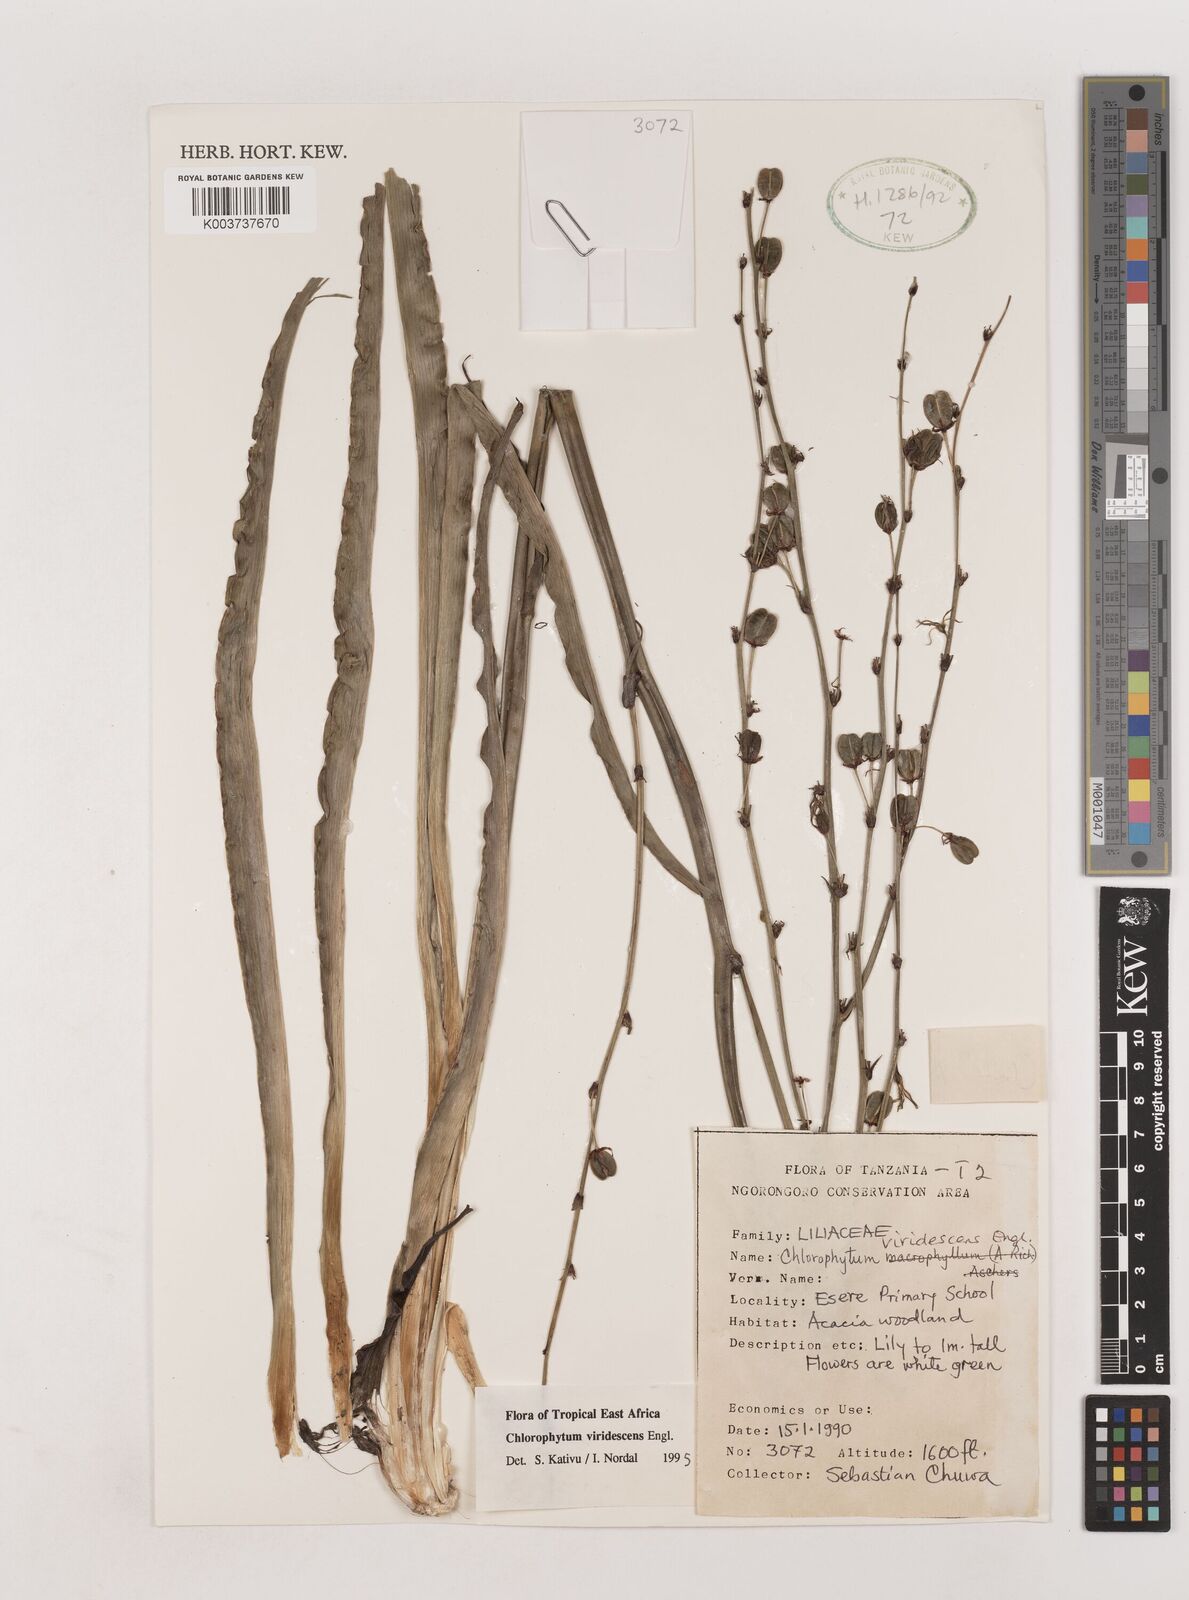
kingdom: Plantae
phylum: Tracheophyta
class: Liliopsida
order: Asparagales
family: Asparagaceae
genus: Chlorophytum
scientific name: Chlorophytum viridescens
